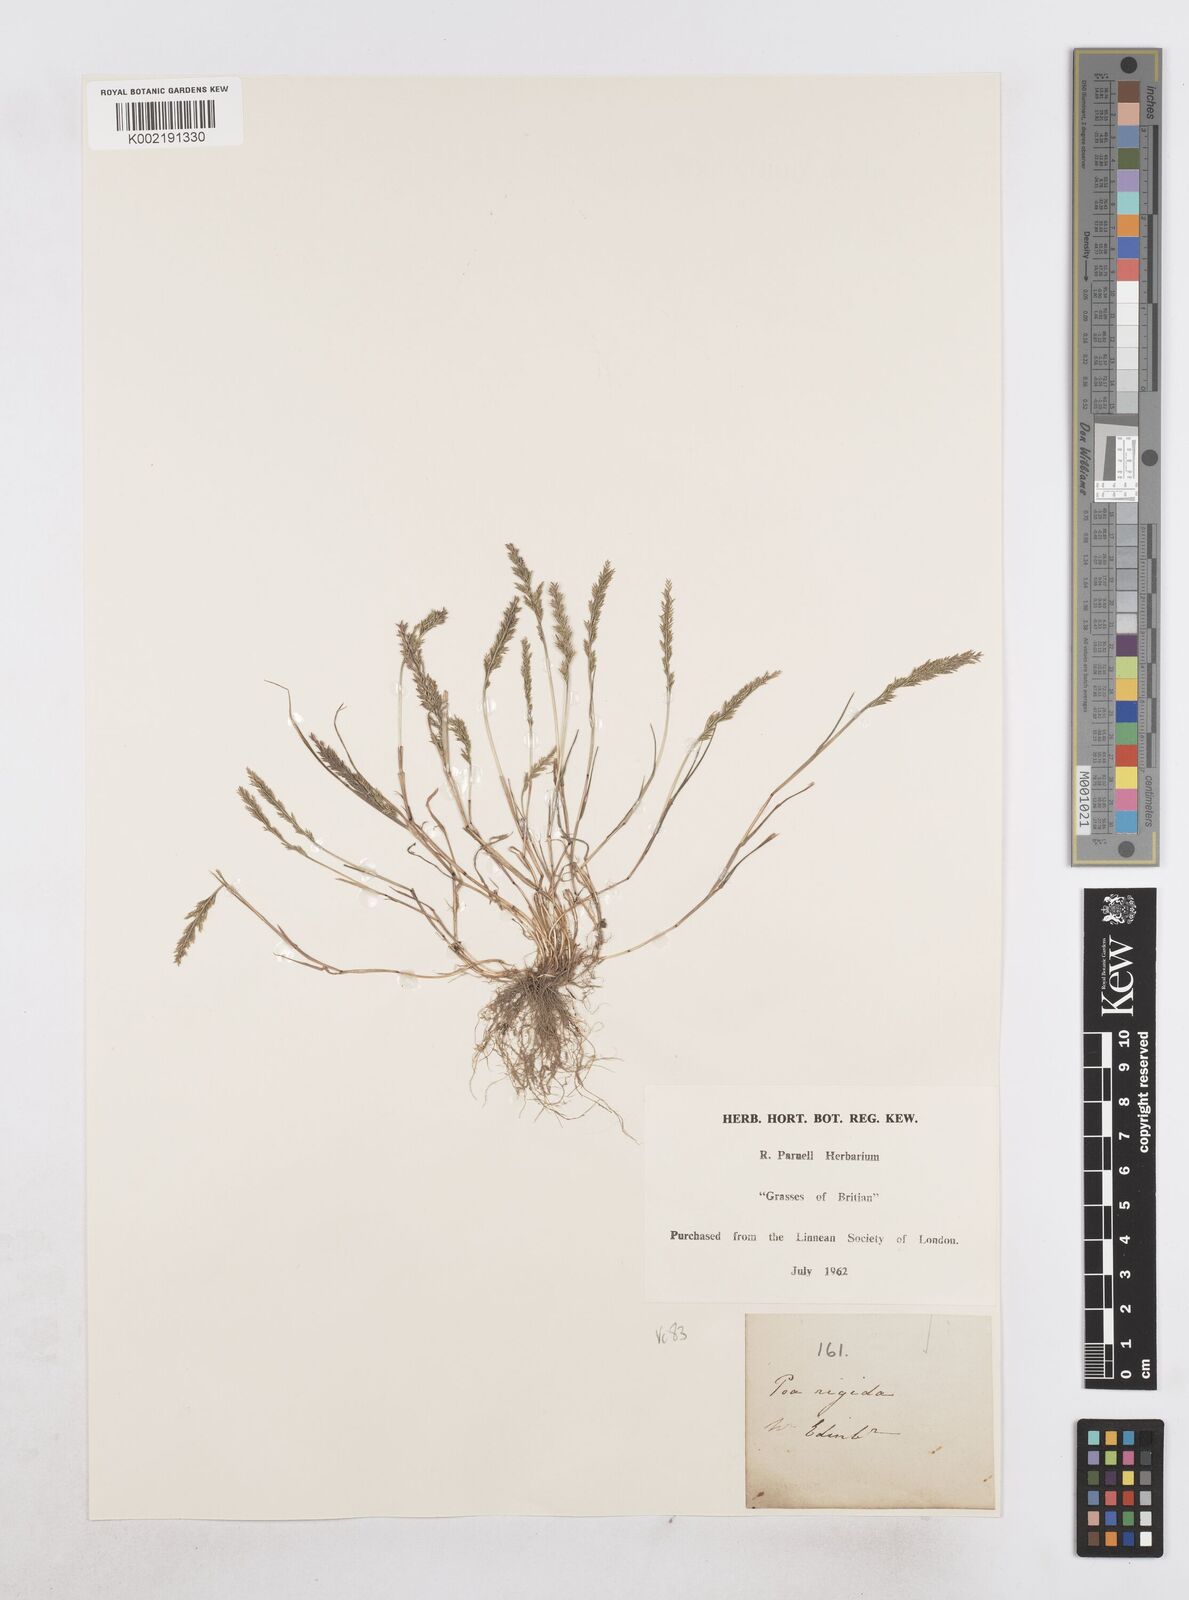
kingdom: Plantae
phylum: Tracheophyta
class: Liliopsida
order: Poales
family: Poaceae
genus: Catapodium
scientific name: Catapodium rigidum
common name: Fern-grass
